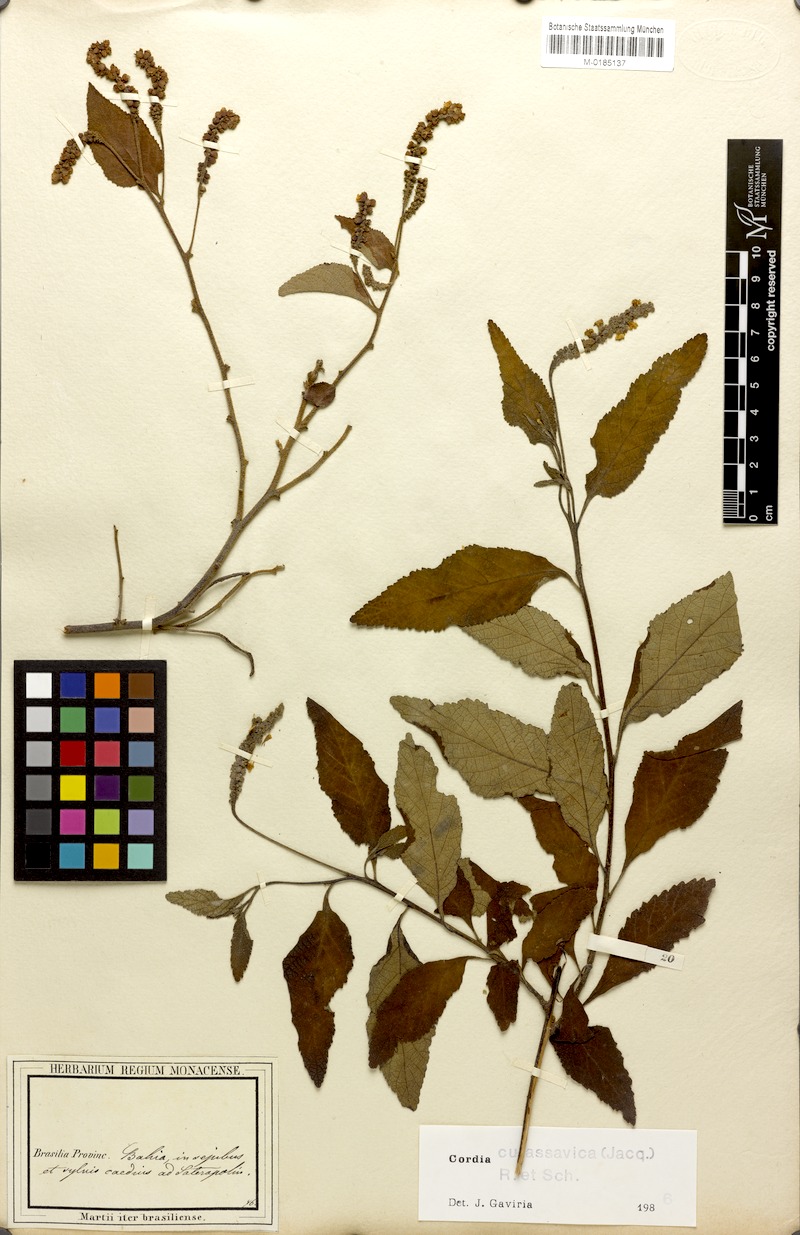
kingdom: Plantae
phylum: Tracheophyta
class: Magnoliopsida
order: Boraginales
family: Cordiaceae
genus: Varronia
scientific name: Varronia curassavica
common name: Black sage
